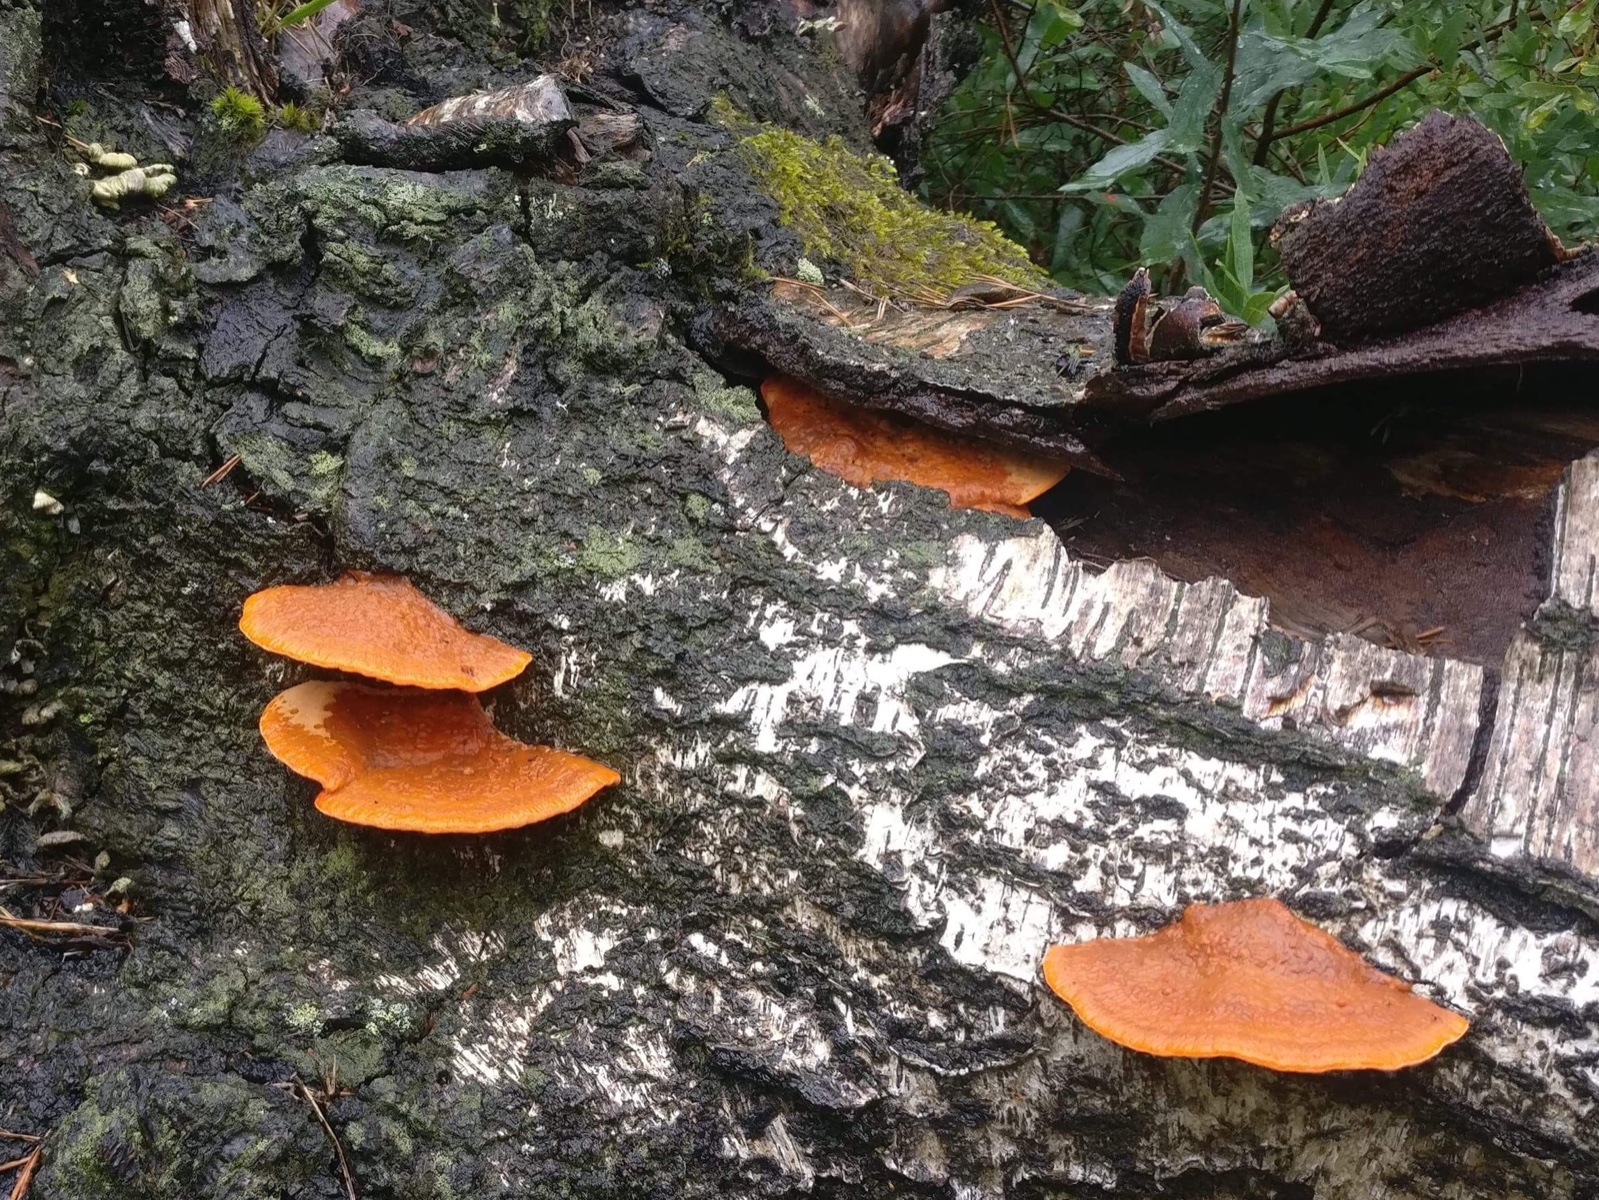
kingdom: Fungi
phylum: Basidiomycota
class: Agaricomycetes
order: Polyporales
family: Polyporaceae
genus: Trametes
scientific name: Trametes cinnabarina
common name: cinnoberporesvamp
